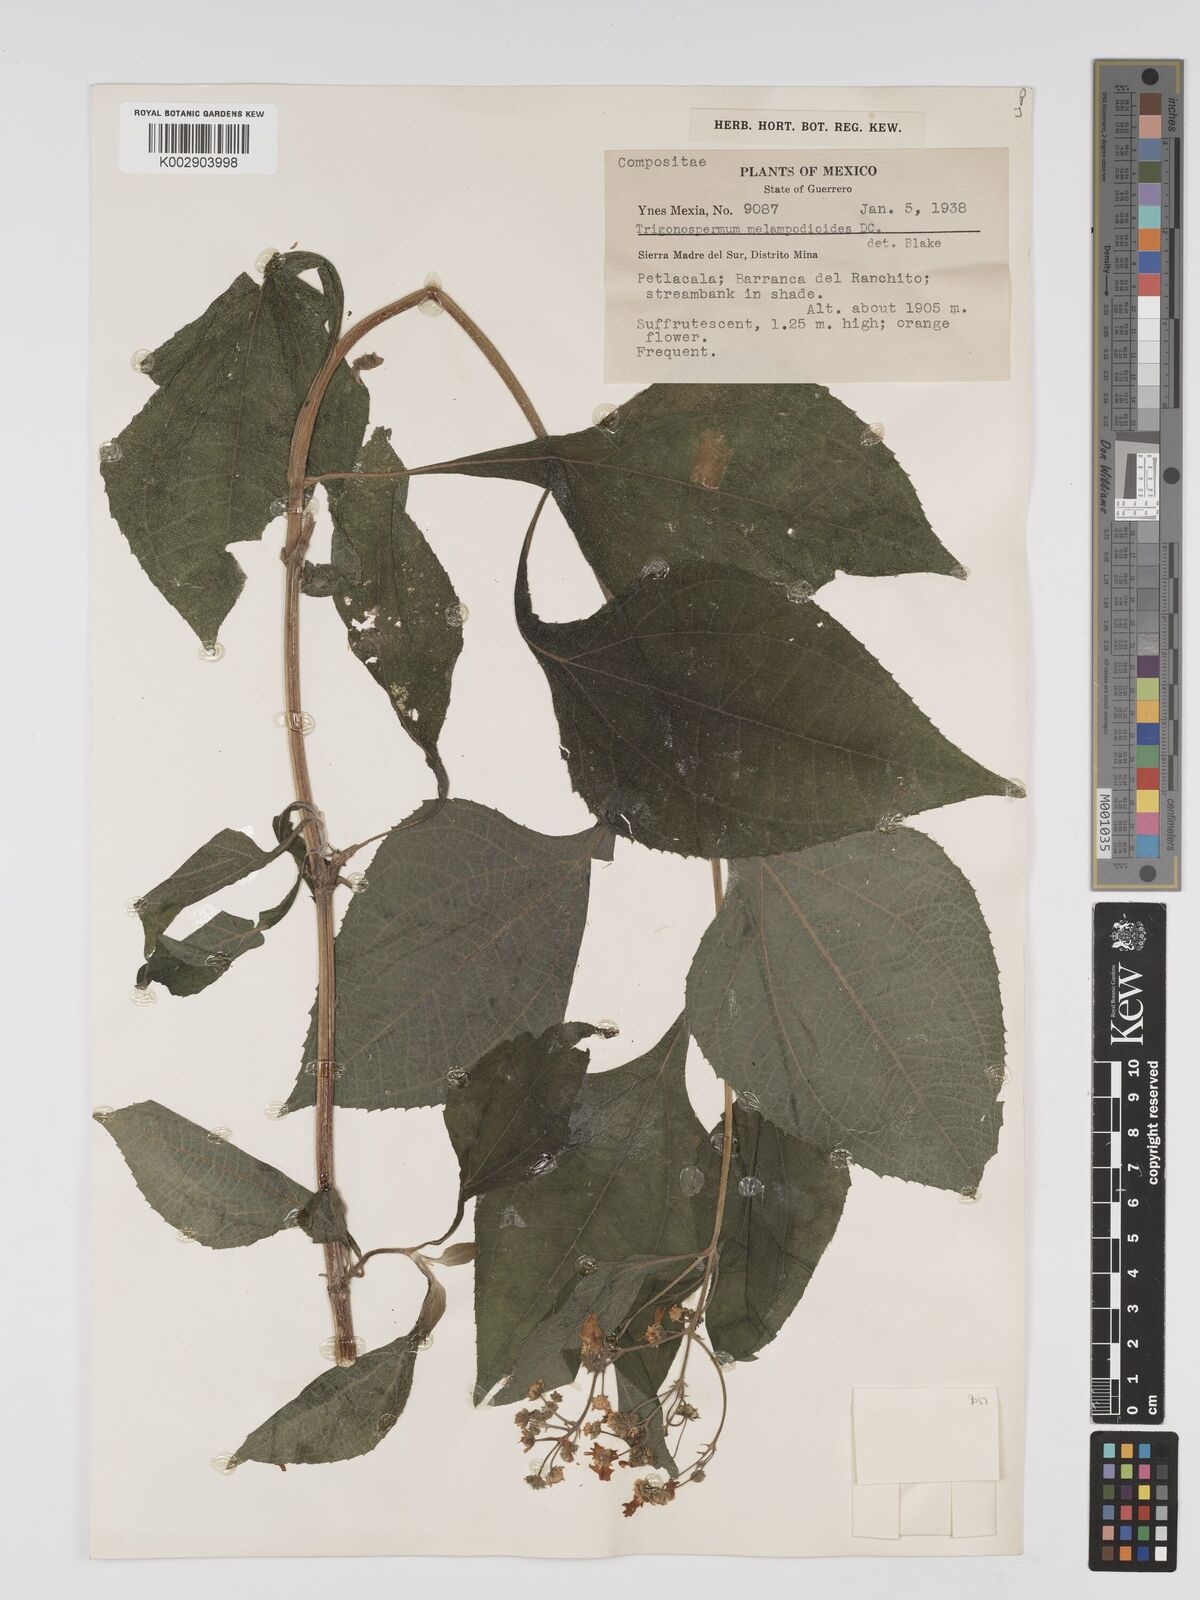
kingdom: Plantae
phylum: Tracheophyta
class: Magnoliopsida
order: Asterales
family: Asteraceae
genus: Trigonospermum
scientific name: Trigonospermum melampodioides
